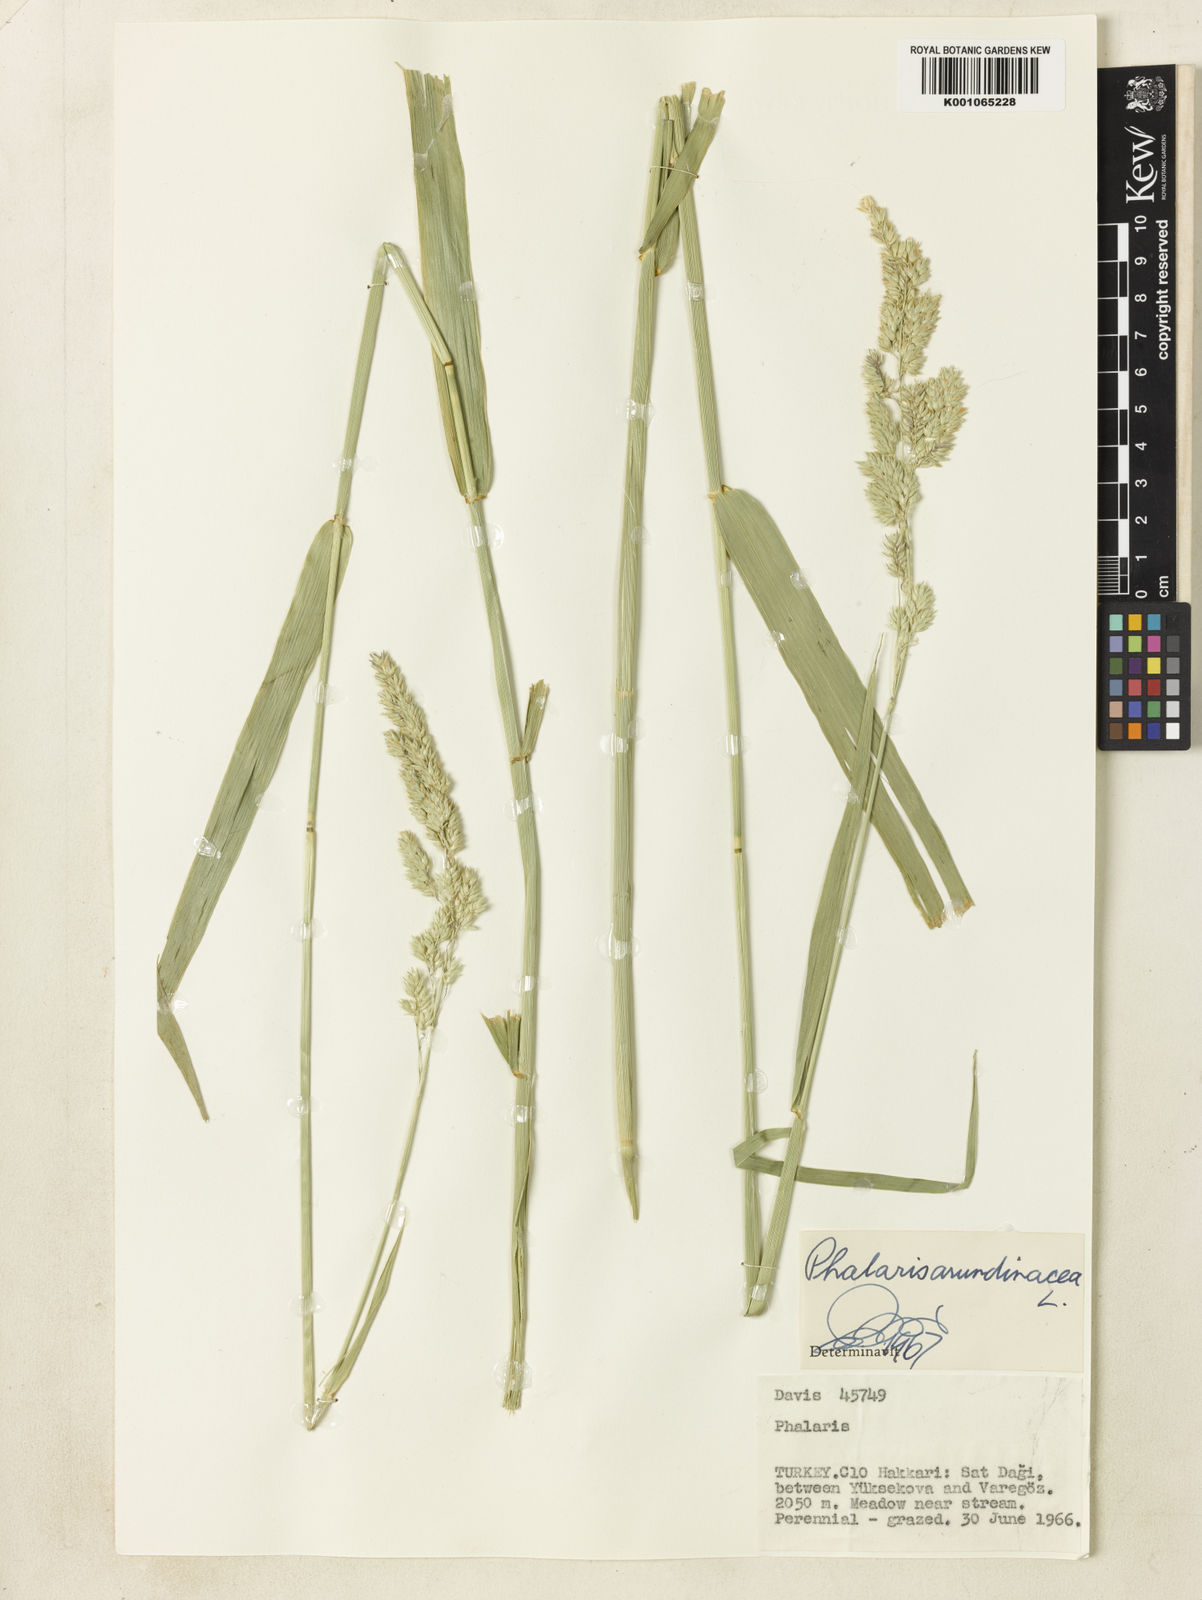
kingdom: Plantae
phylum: Tracheophyta
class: Liliopsida
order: Poales
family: Poaceae
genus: Phalaris
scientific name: Phalaris arundinacea
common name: Reed canary-grass
